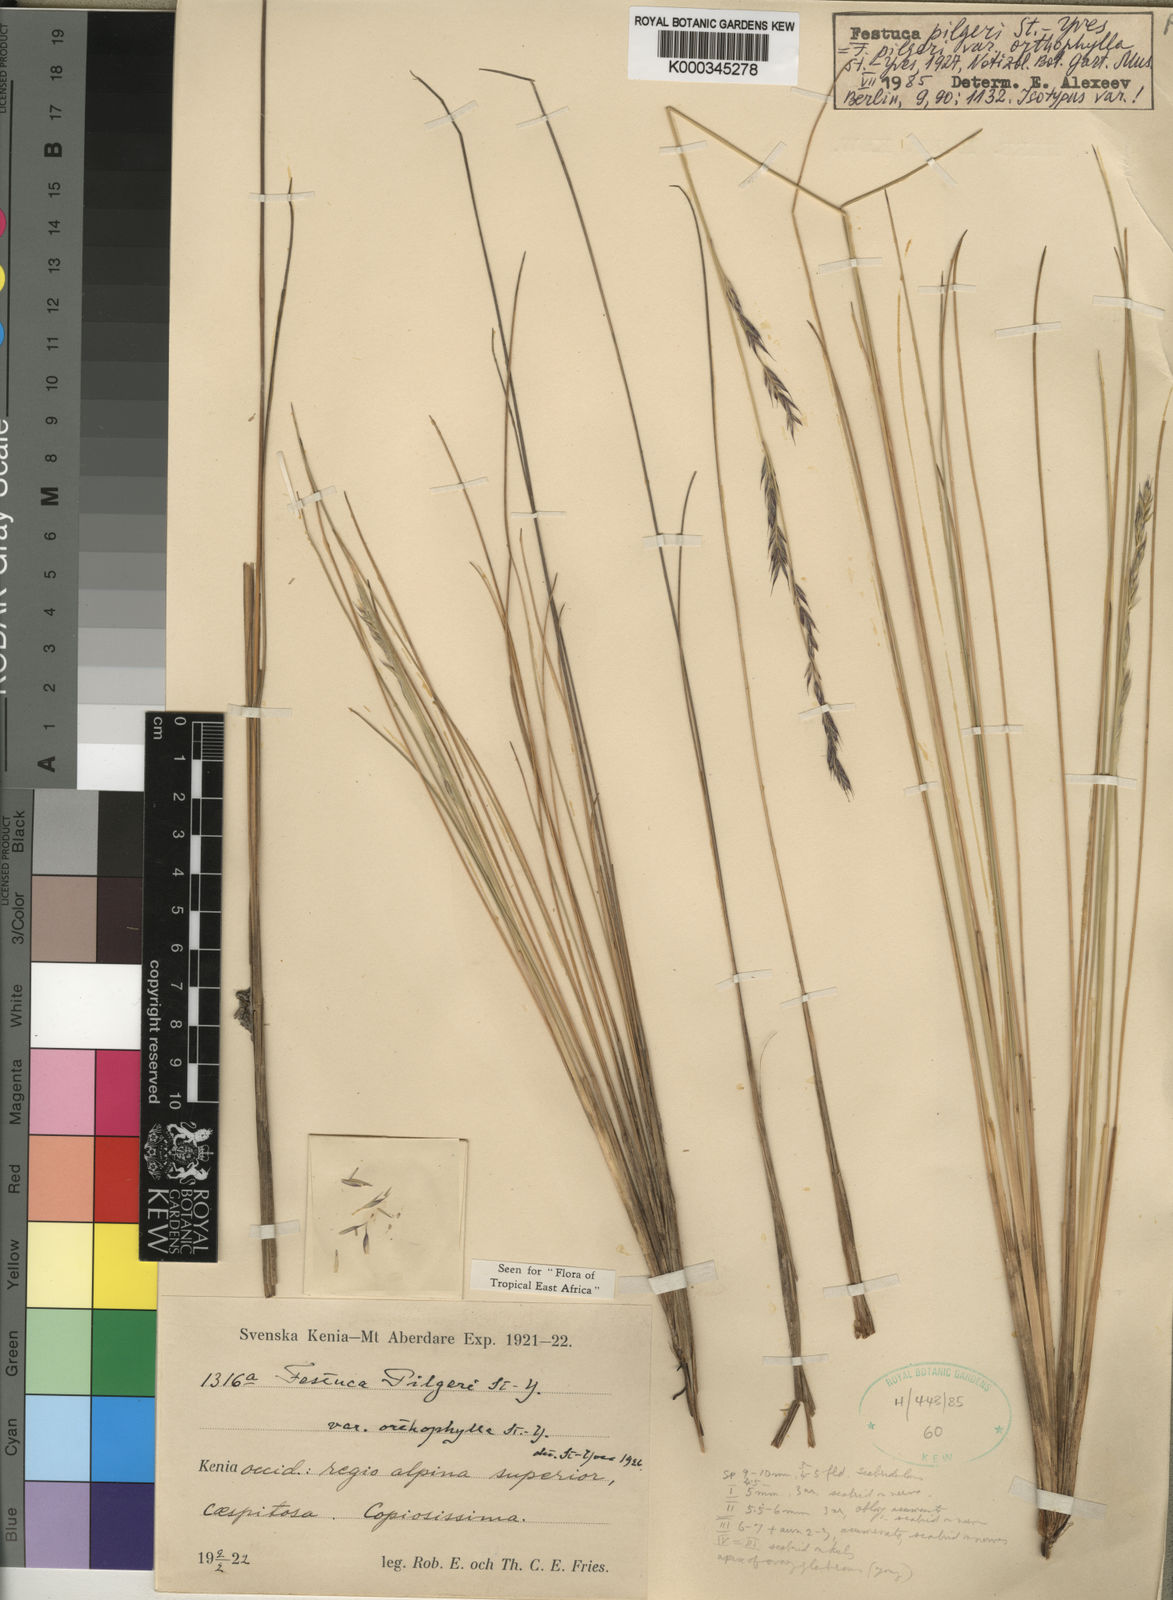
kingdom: Plantae
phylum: Tracheophyta
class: Liliopsida
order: Poales
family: Poaceae
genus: Festuca
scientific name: Festuca pilgeri
